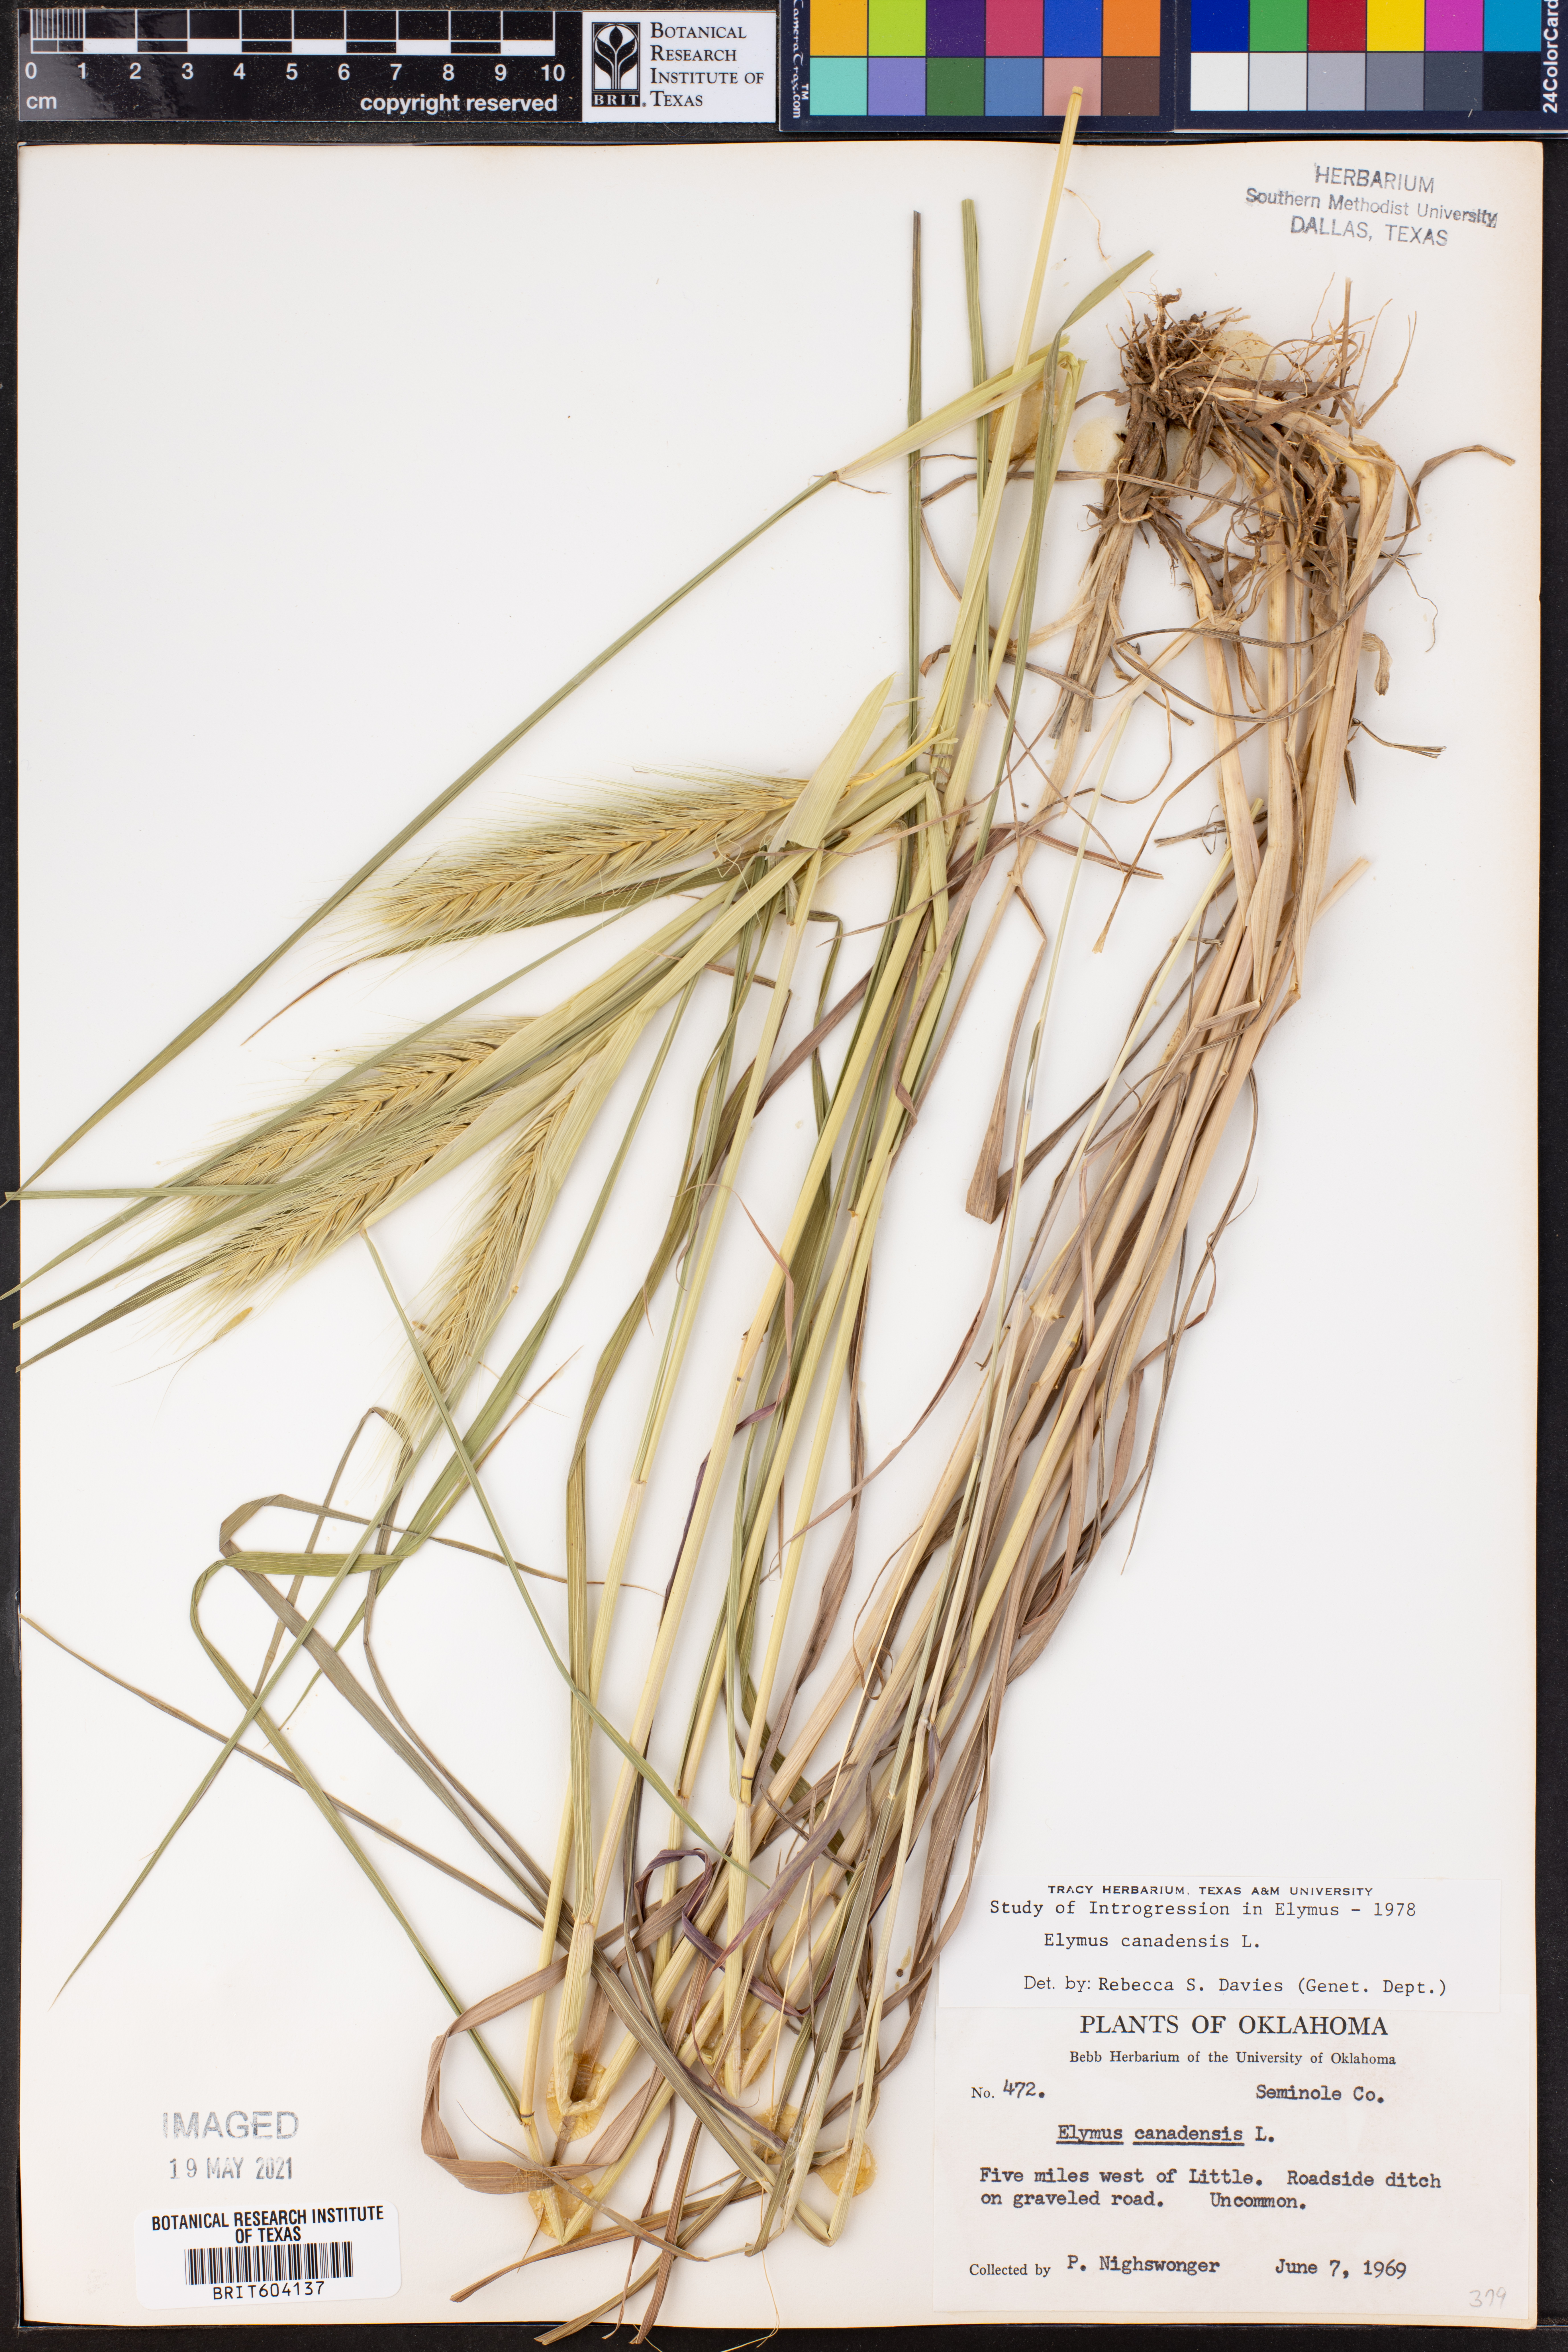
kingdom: Plantae
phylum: Tracheophyta
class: Liliopsida
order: Poales
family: Poaceae
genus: Elymus
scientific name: Elymus canadensis
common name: Canada wild rye
